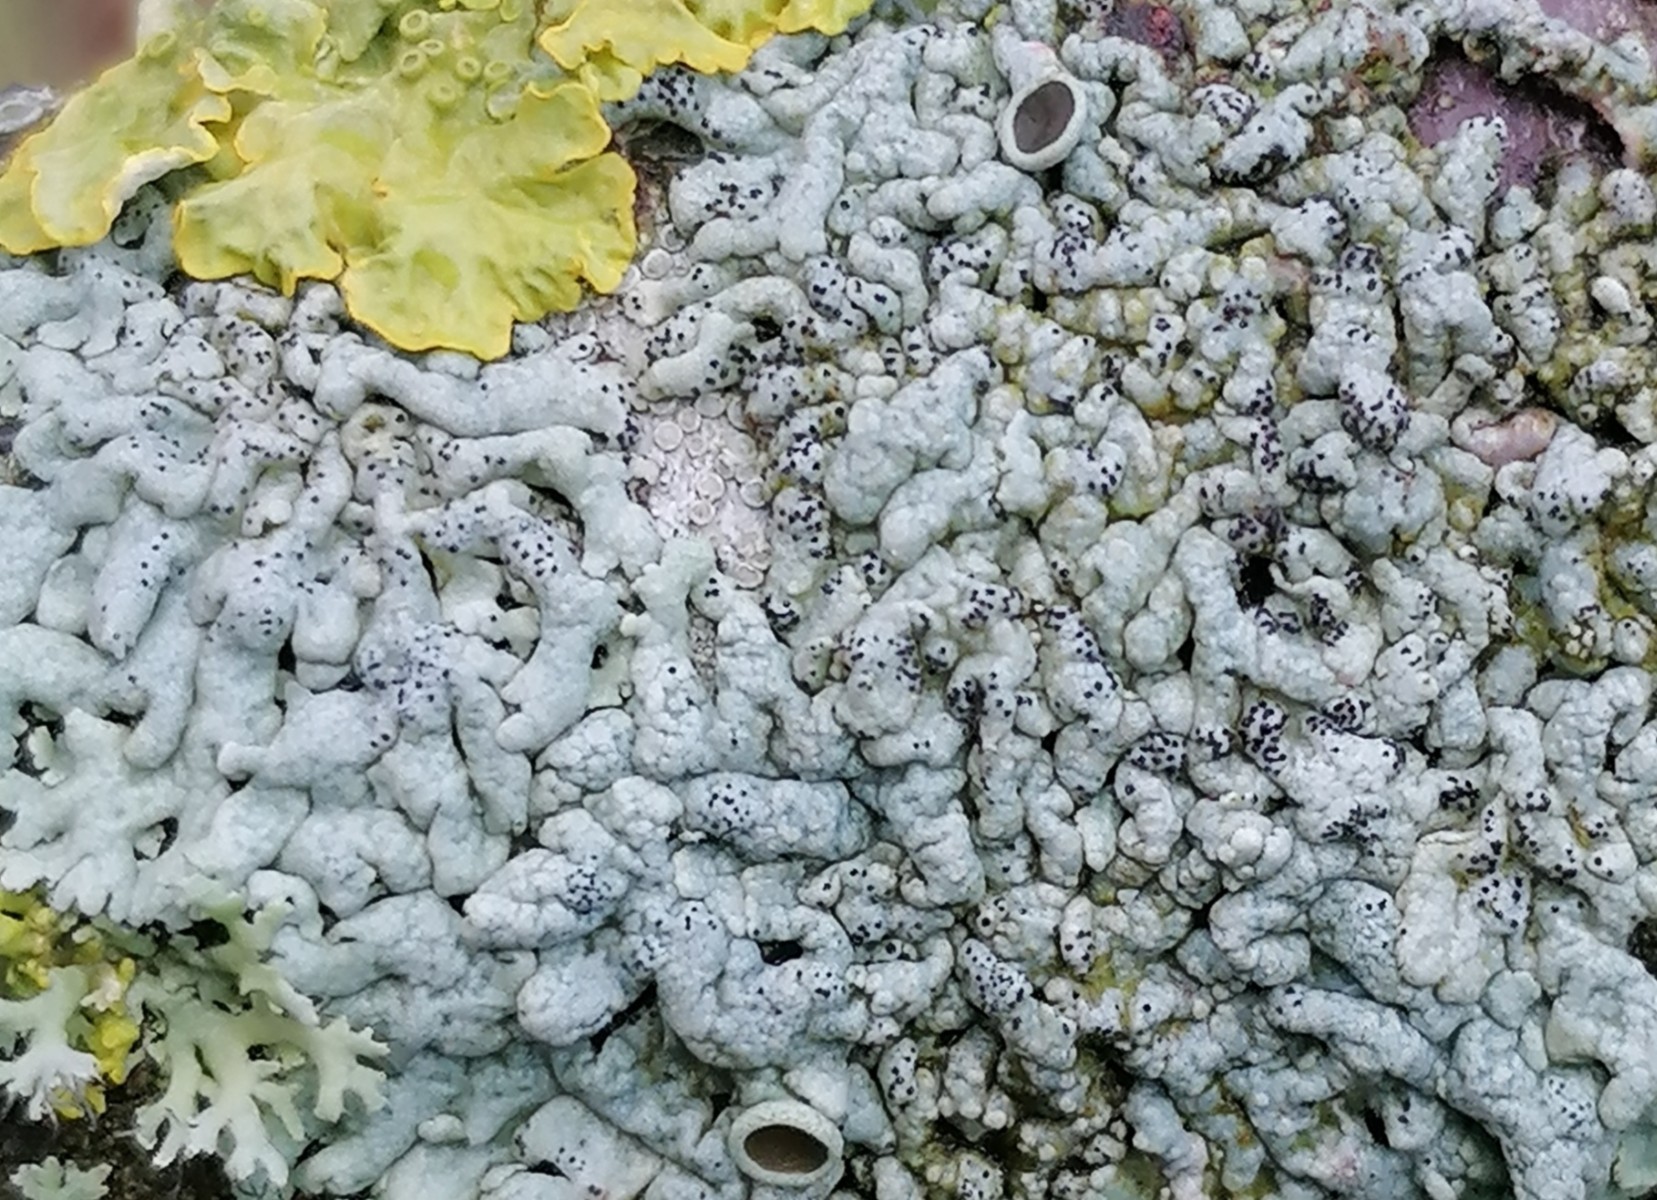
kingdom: Fungi
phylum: Ascomycota
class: Lecanoromycetes
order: Caliciales
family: Physciaceae
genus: Physcia
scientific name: Physcia aipolia
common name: hvidprikket rosetlav
